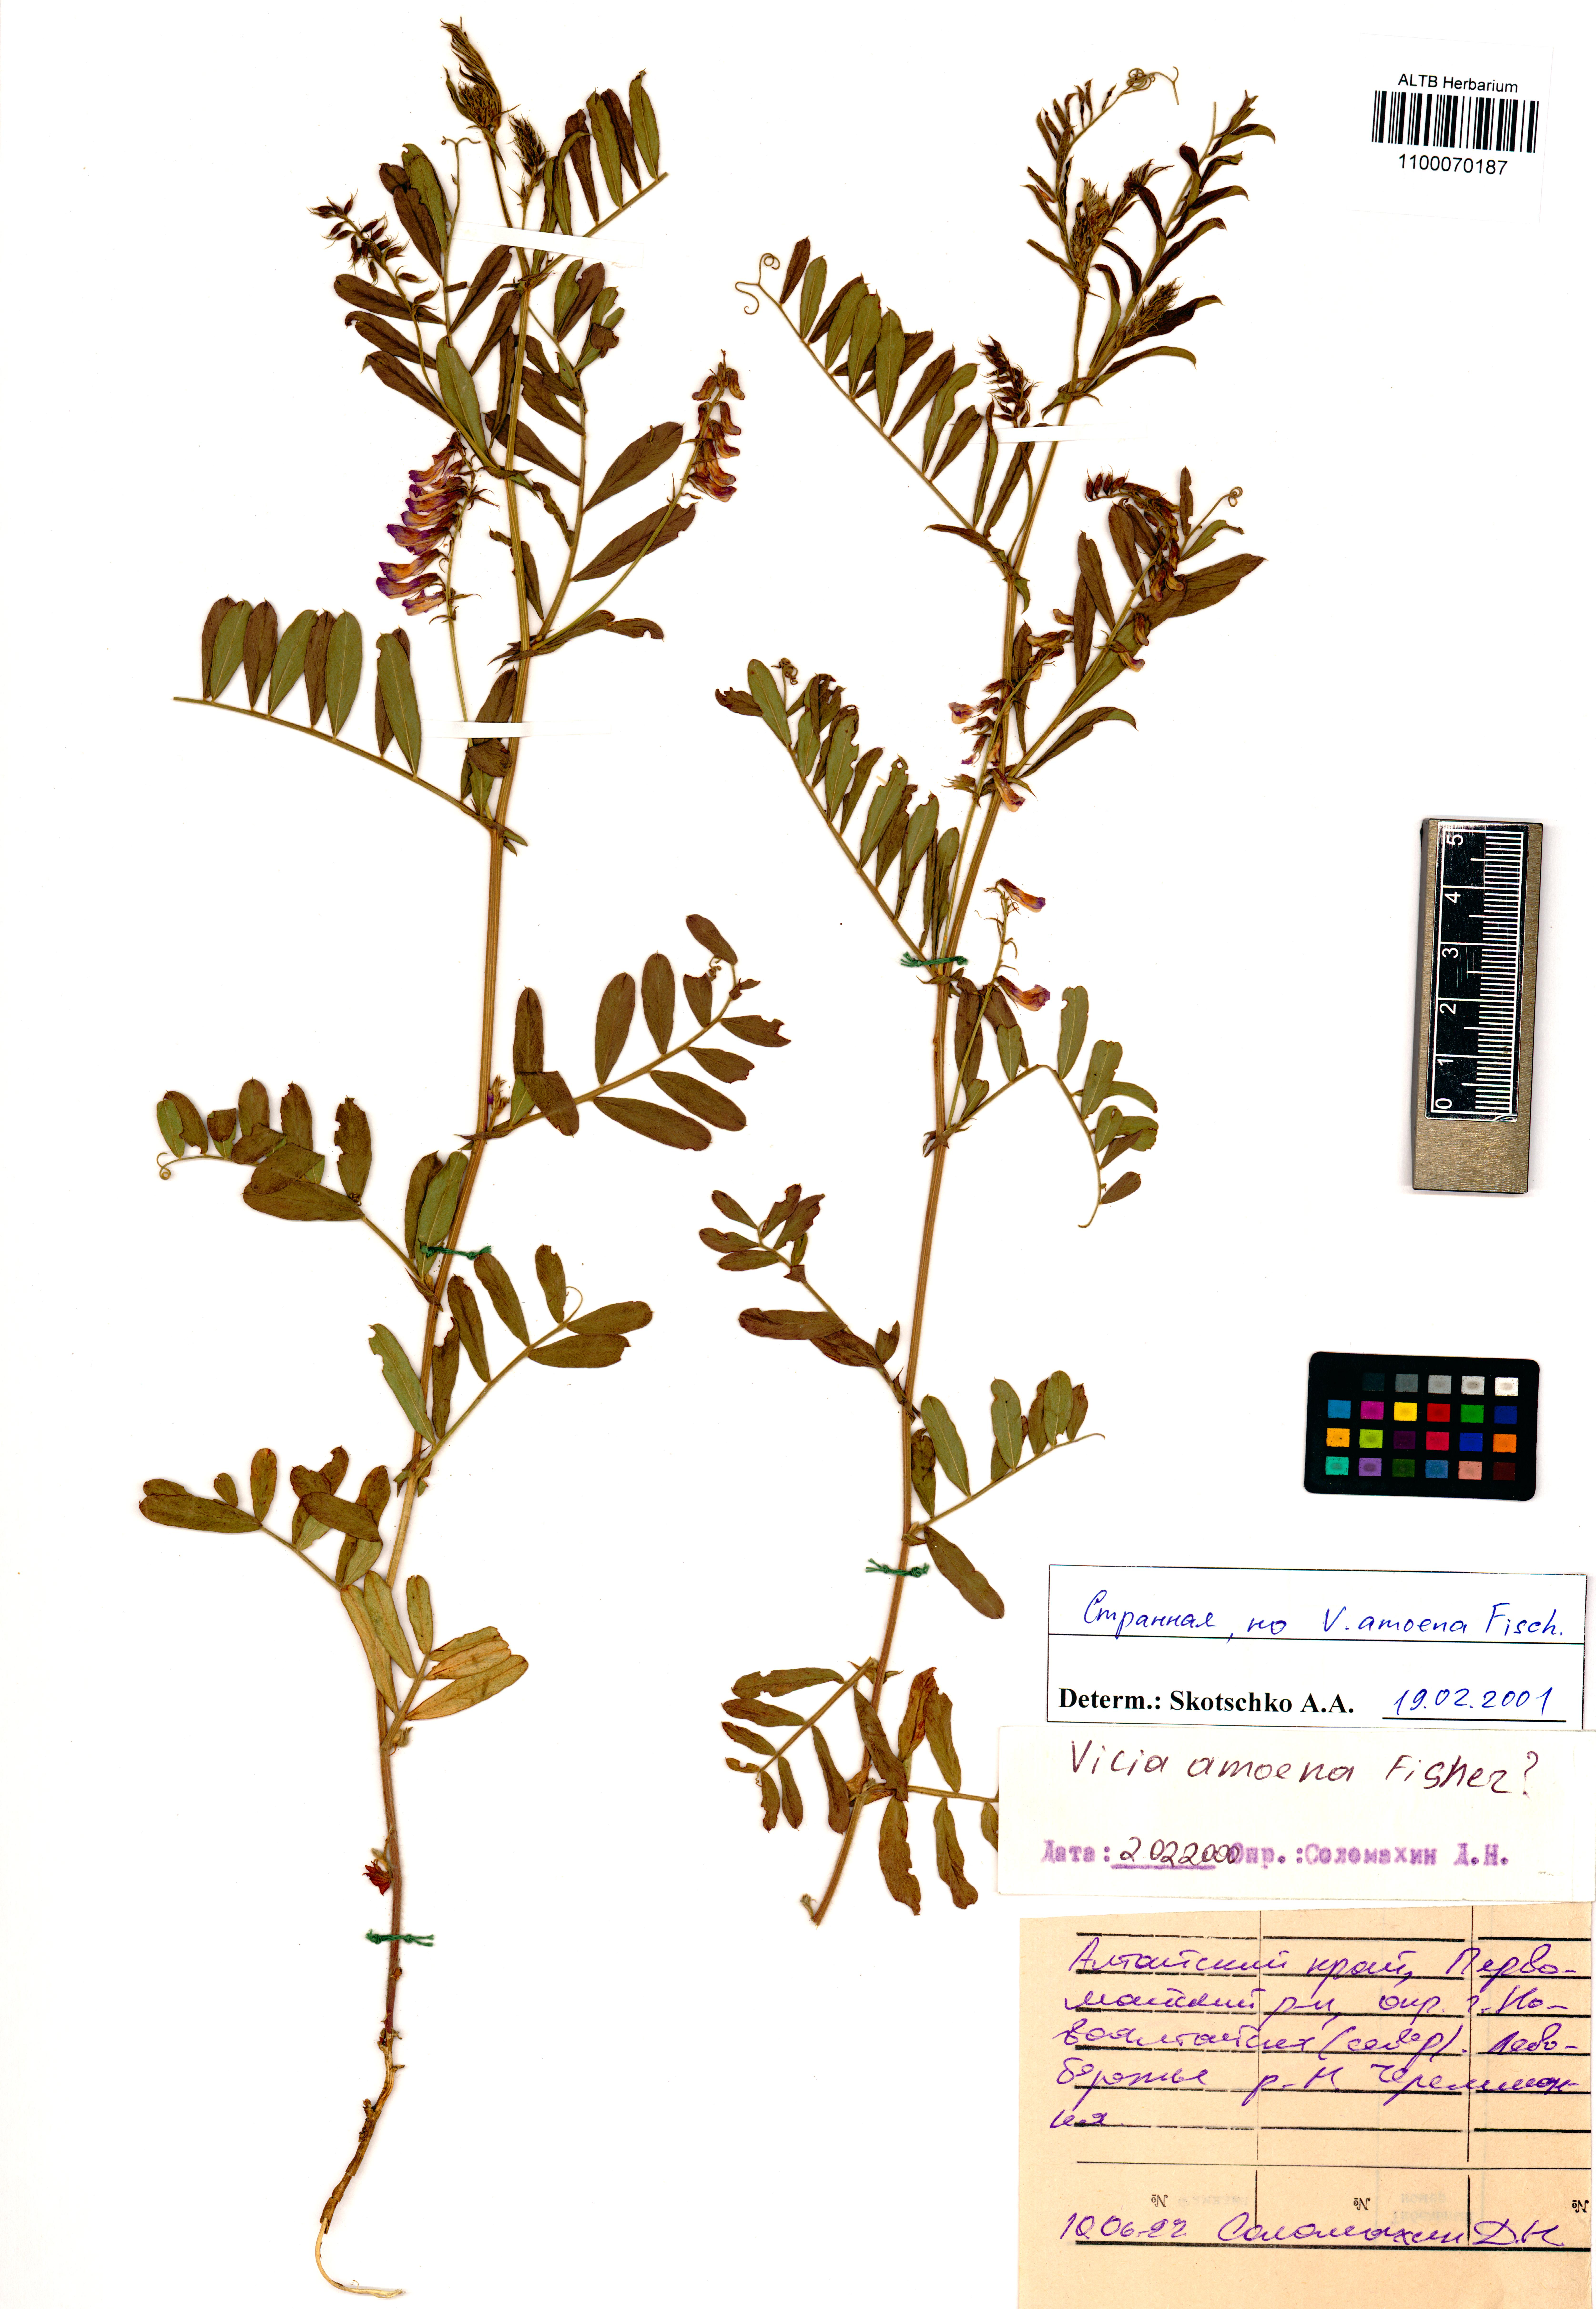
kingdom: Plantae
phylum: Tracheophyta
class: Magnoliopsida
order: Fabales
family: Fabaceae
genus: Vicia
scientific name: Vicia amoena
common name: Cheder ebs
